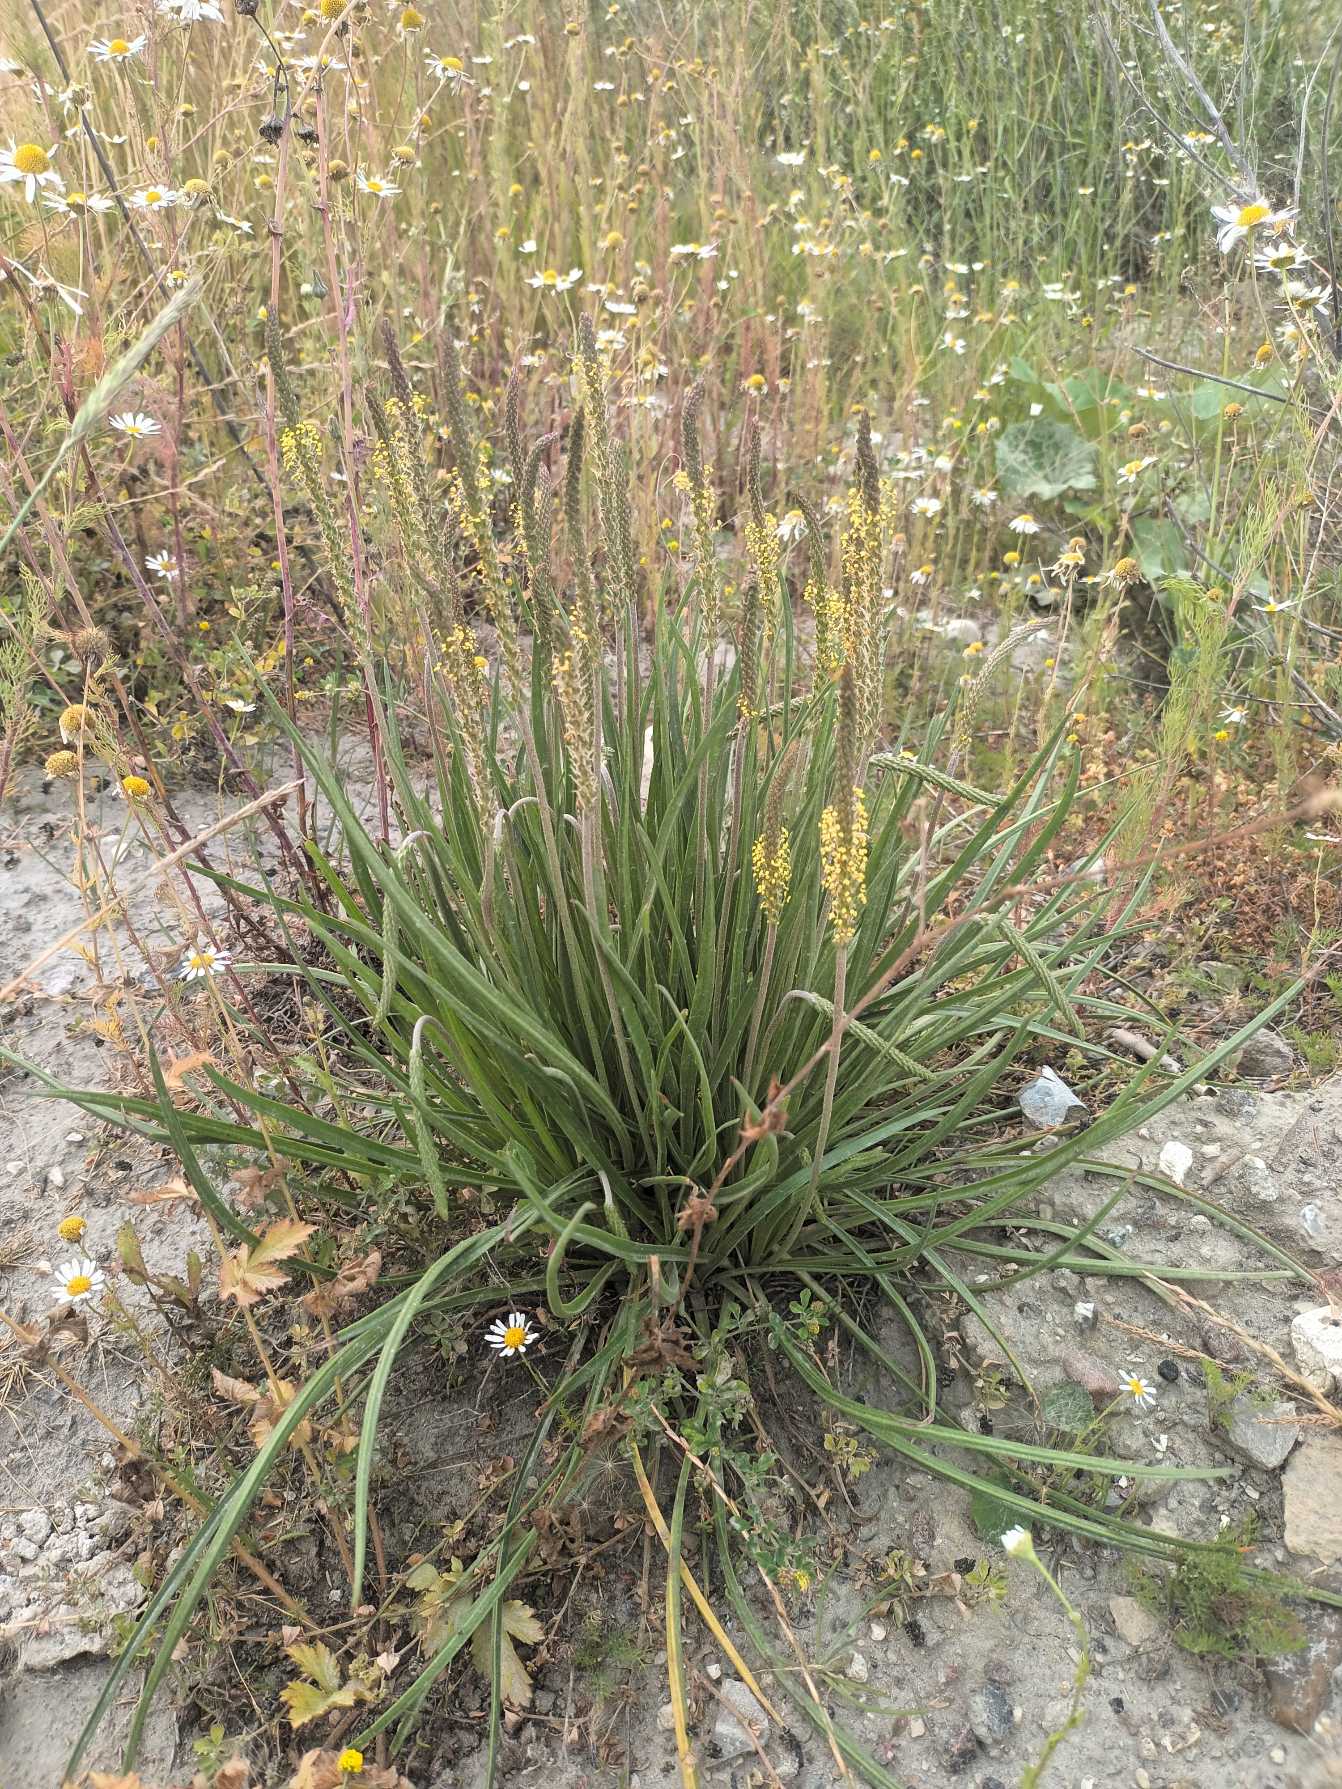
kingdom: Plantae
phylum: Tracheophyta
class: Magnoliopsida
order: Lamiales
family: Plantaginaceae
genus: Plantago
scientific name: Plantago maritima
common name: Strand-vejbred
